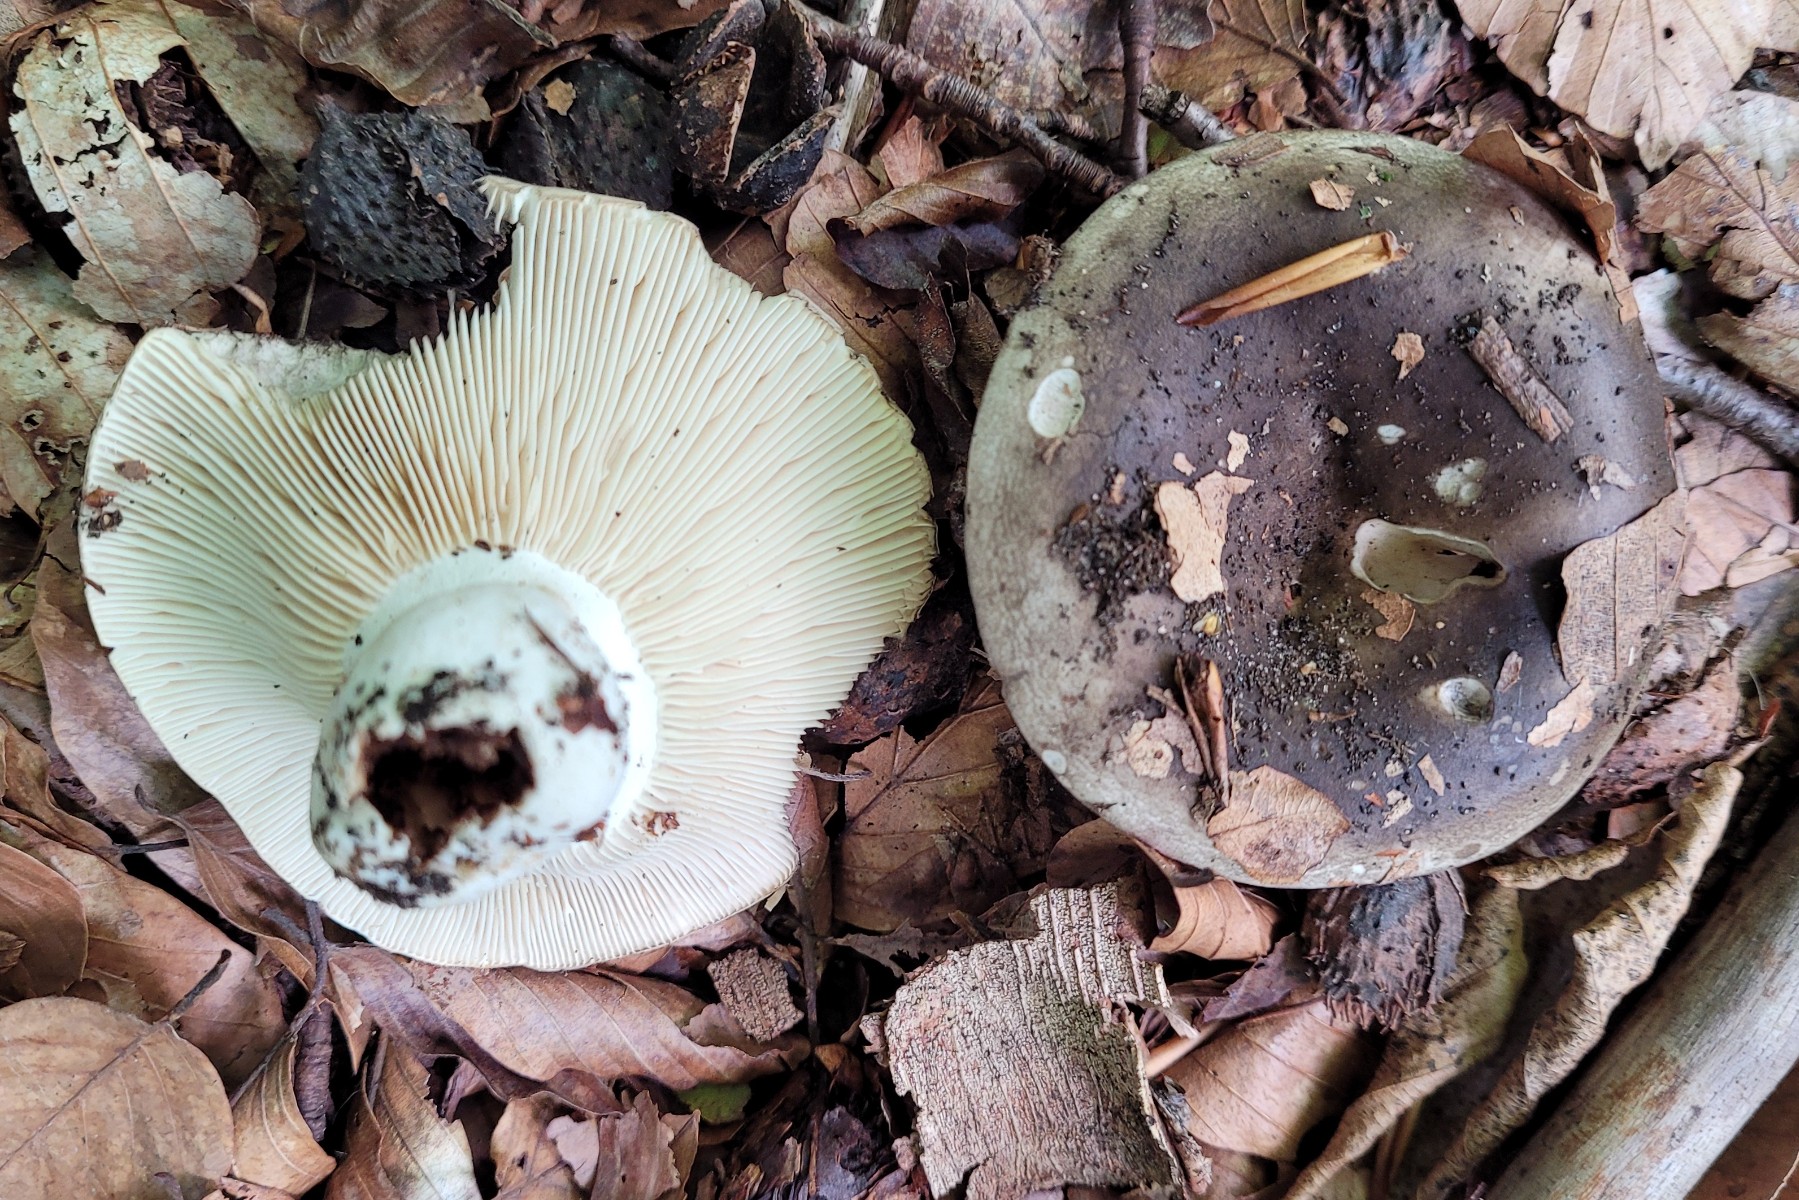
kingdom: Fungi
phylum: Basidiomycota
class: Agaricomycetes
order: Russulales
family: Russulaceae
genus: Russula
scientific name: Russula densifolia
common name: tætbladet skørhat
